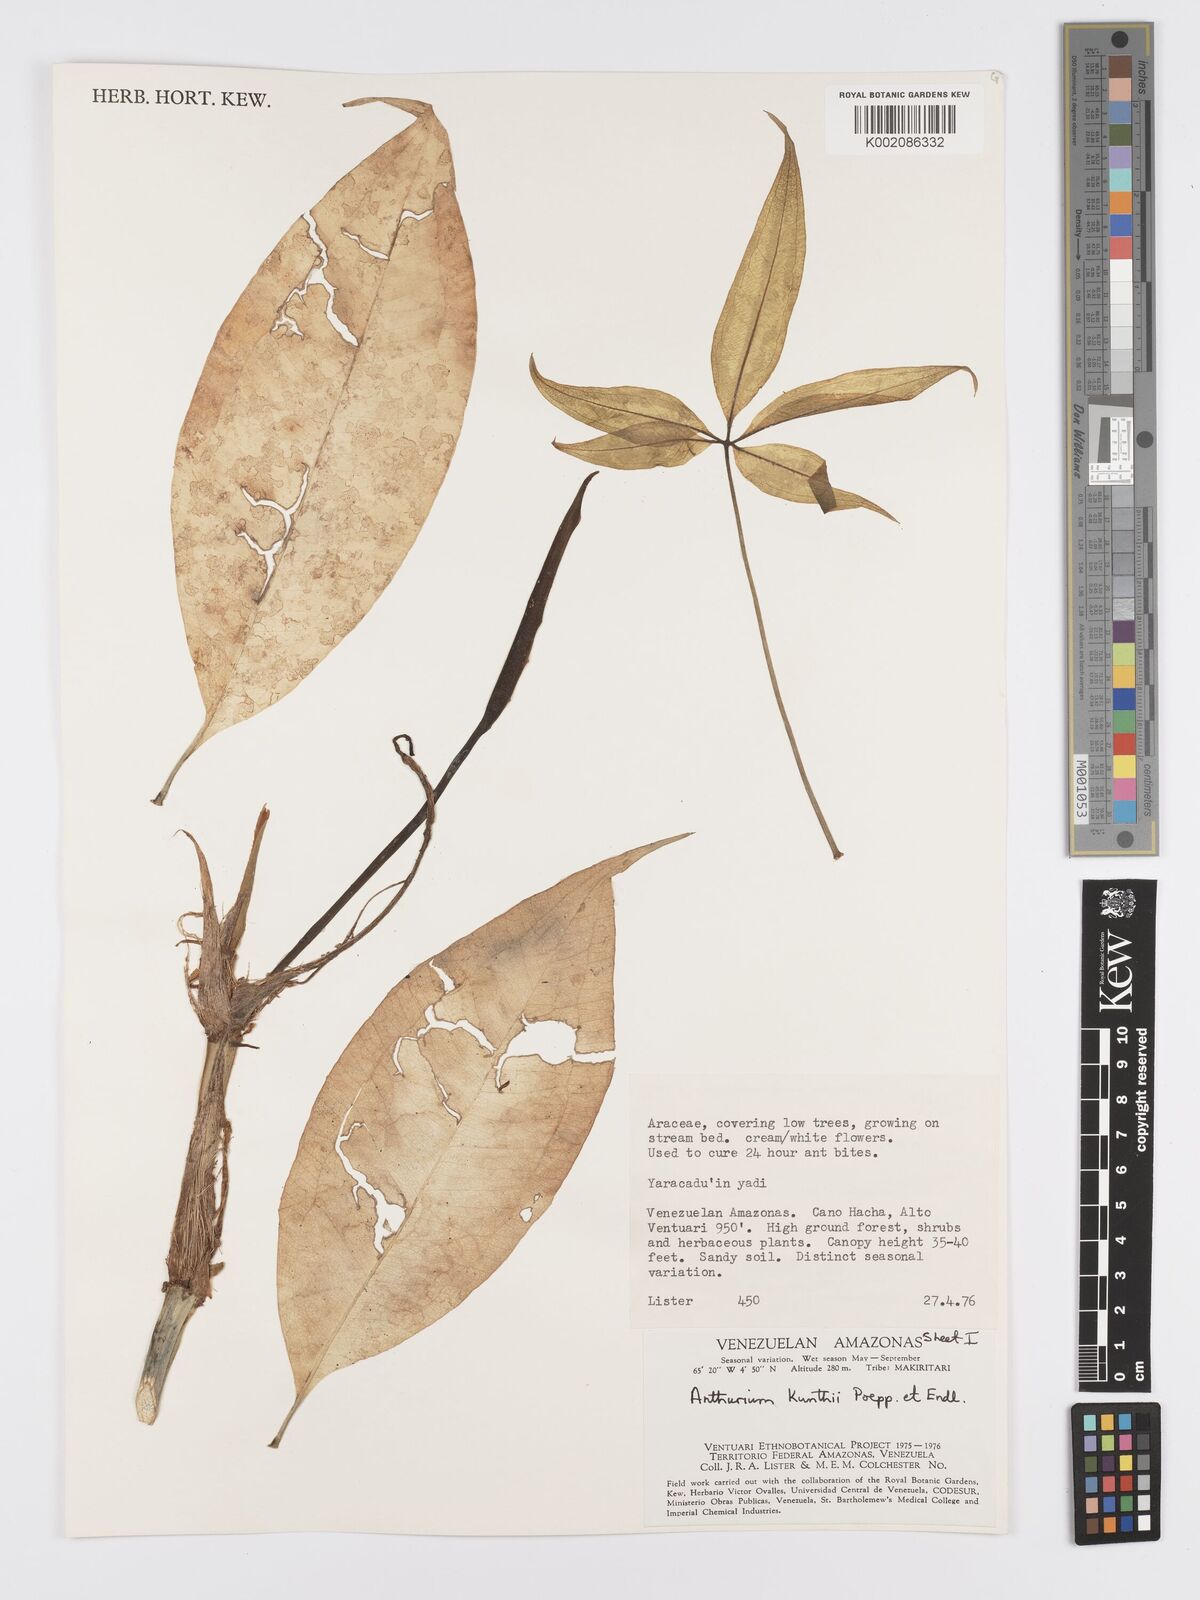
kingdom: Plantae
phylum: Tracheophyta
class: Liliopsida
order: Alismatales
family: Araceae
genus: Anthurium
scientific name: Anthurium kunthii
